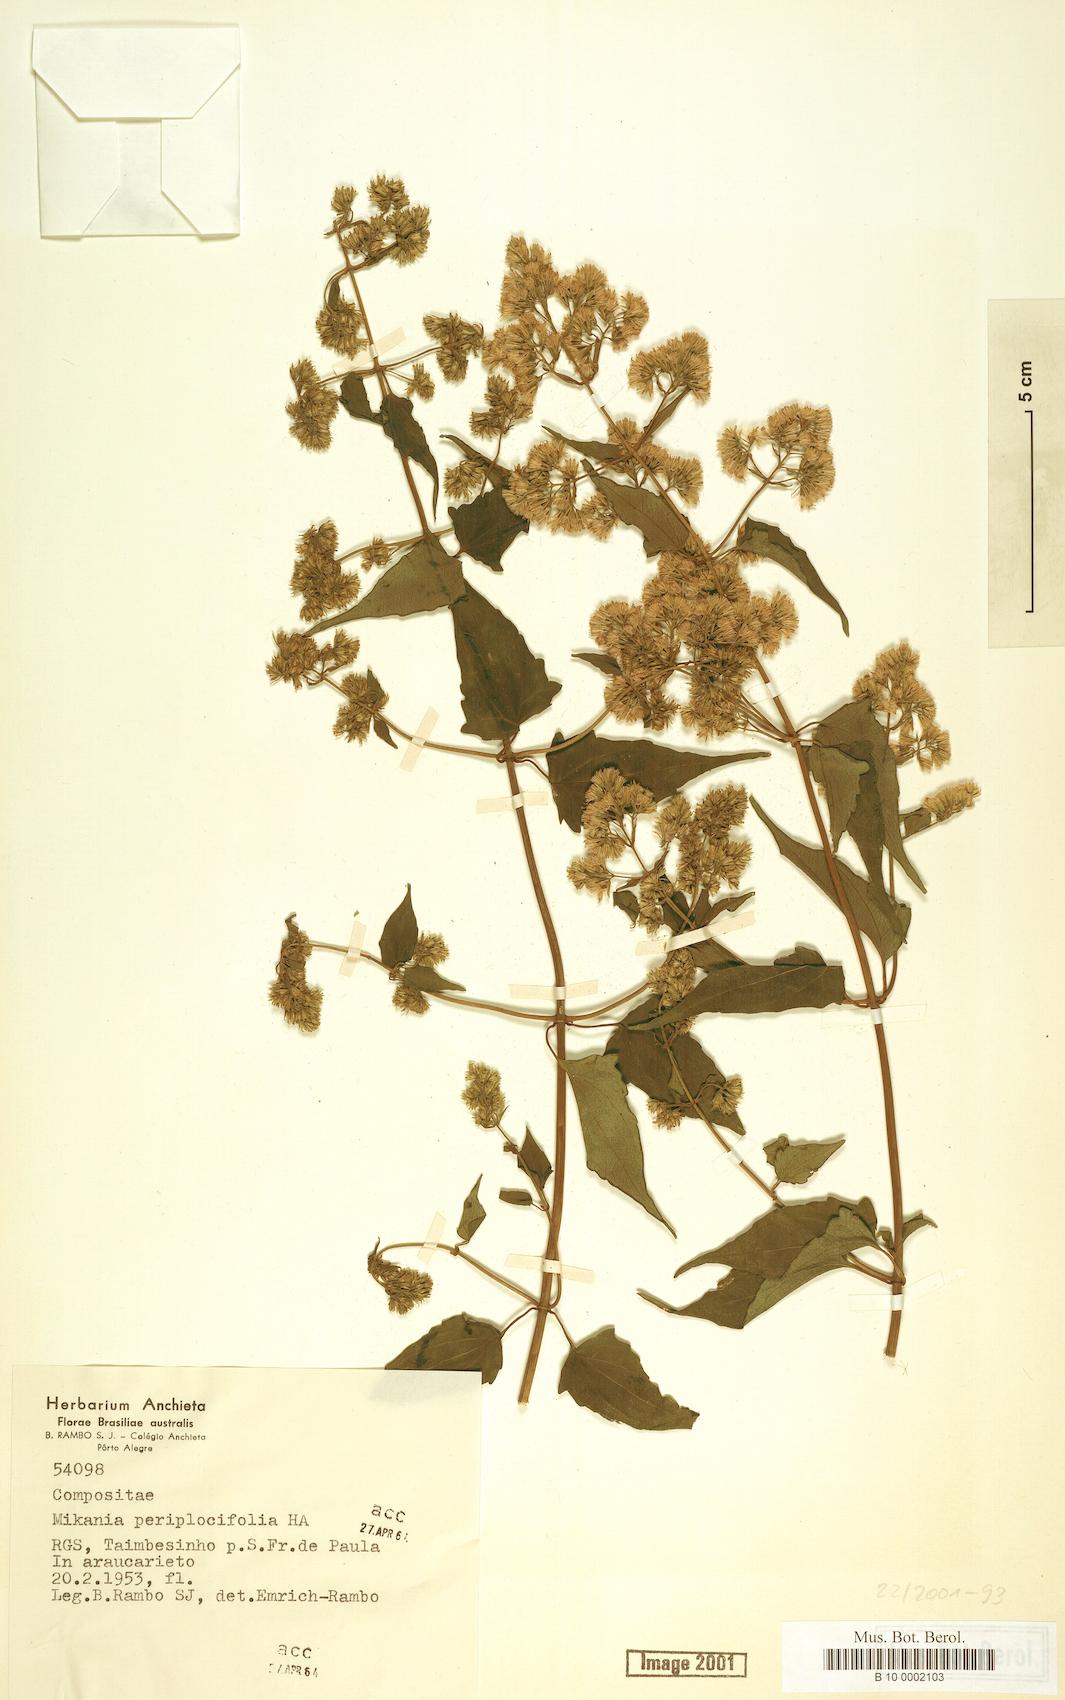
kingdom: Plantae
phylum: Tracheophyta
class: Magnoliopsida
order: Asterales
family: Asteraceae
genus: Mikania
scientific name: Mikania periplocifolia
